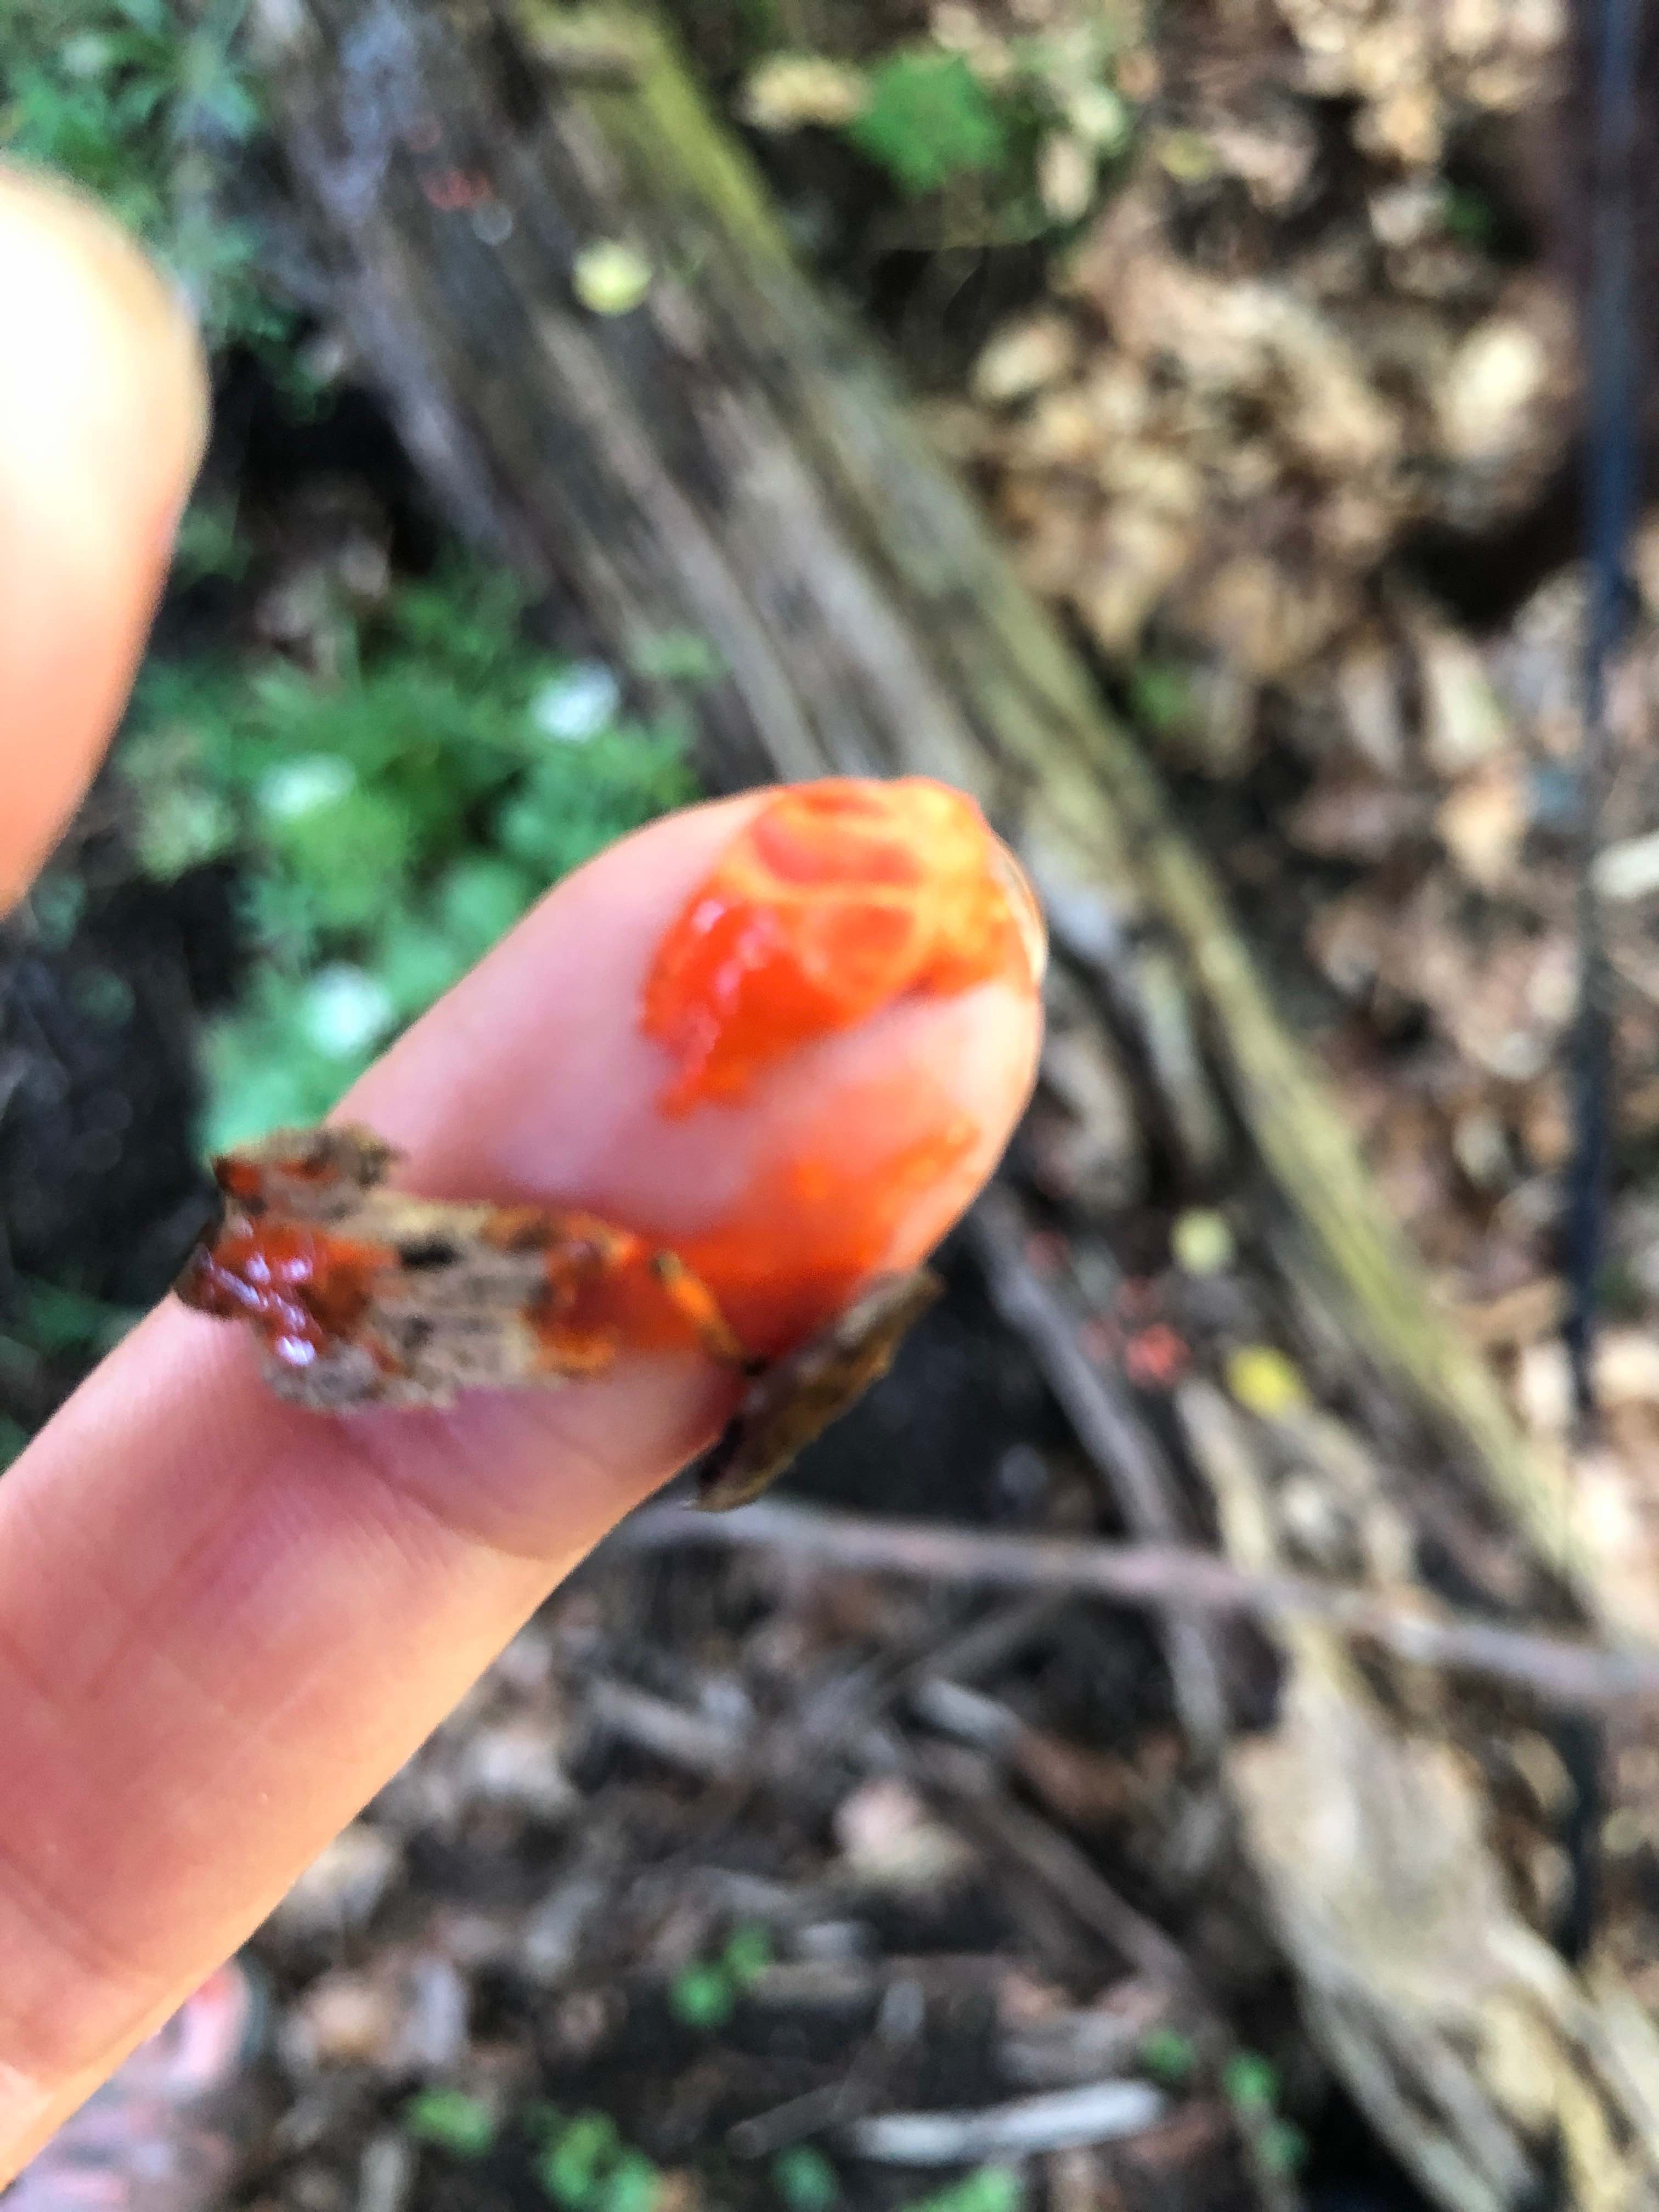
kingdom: Protozoa
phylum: Mycetozoa
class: Myxomycetes
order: Cribrariales
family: Tubiferaceae
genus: Lycogala
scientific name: Lycogala epidendrum
